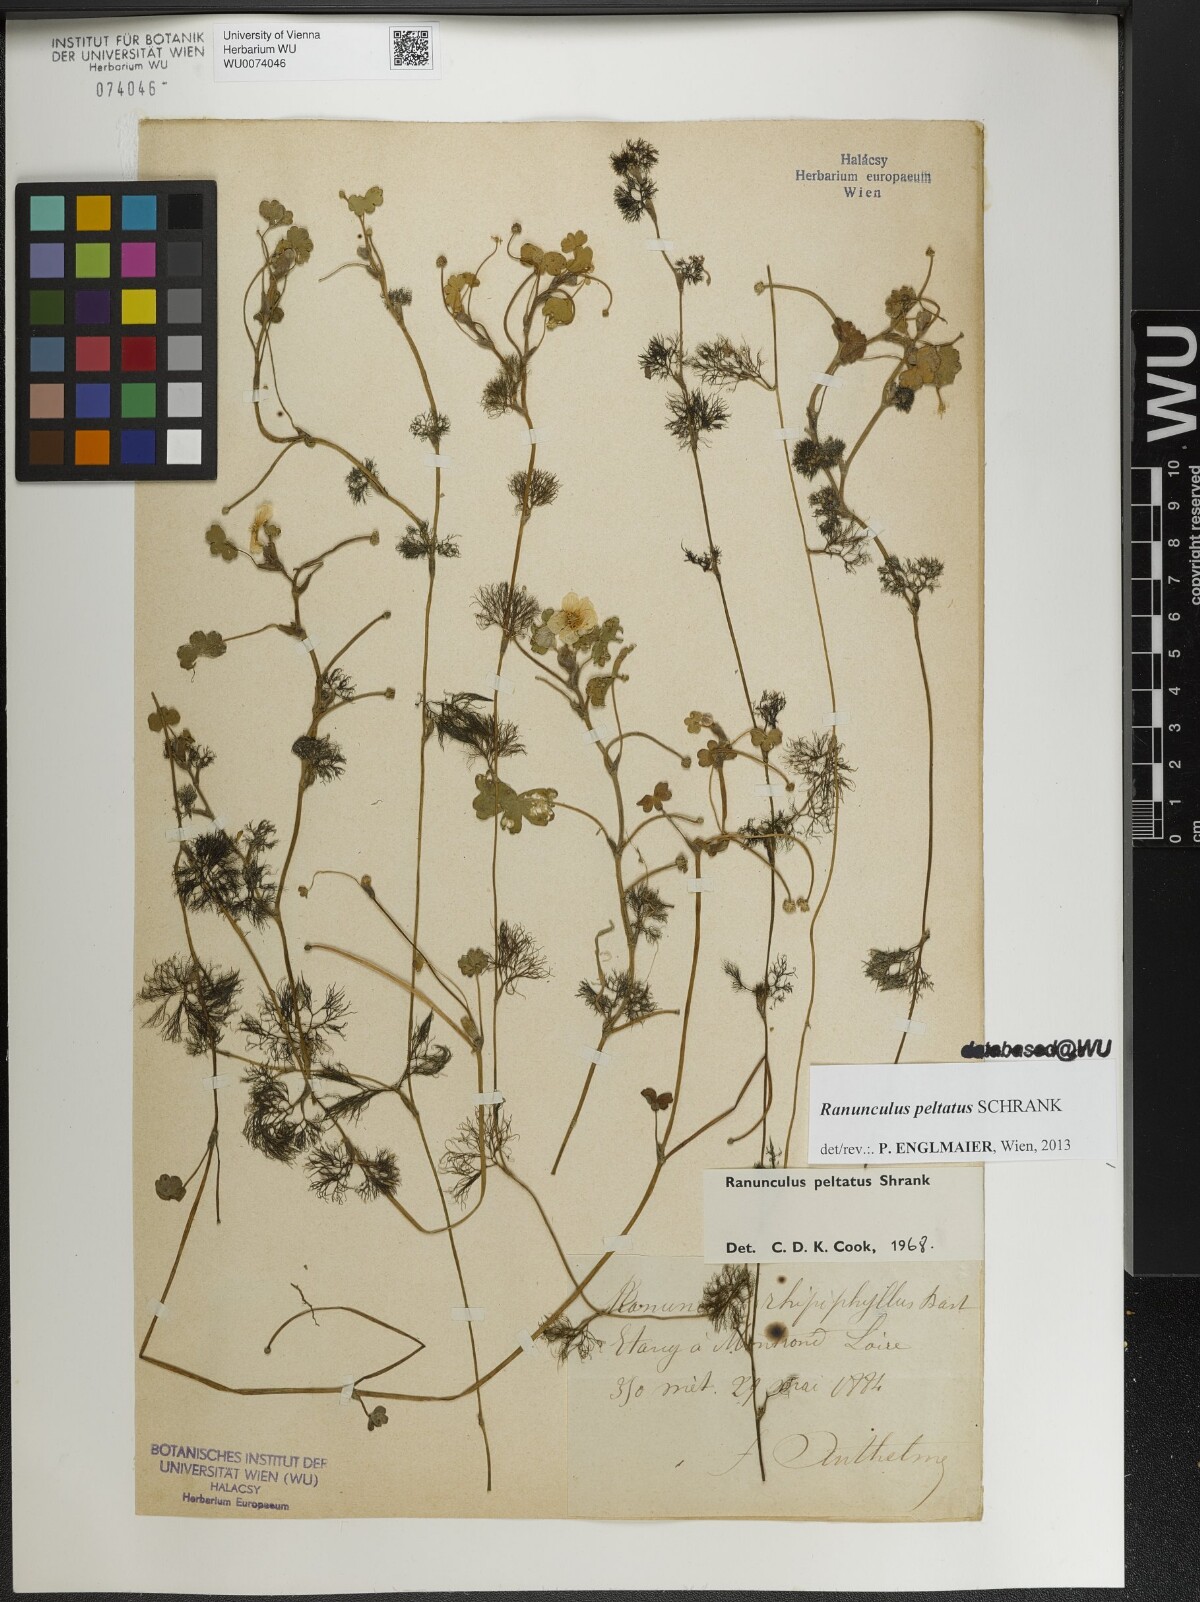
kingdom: Plantae
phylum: Tracheophyta
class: Magnoliopsida
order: Ranunculales
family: Ranunculaceae
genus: Ranunculus
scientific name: Ranunculus peltatus
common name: Pond water-crowfoot
